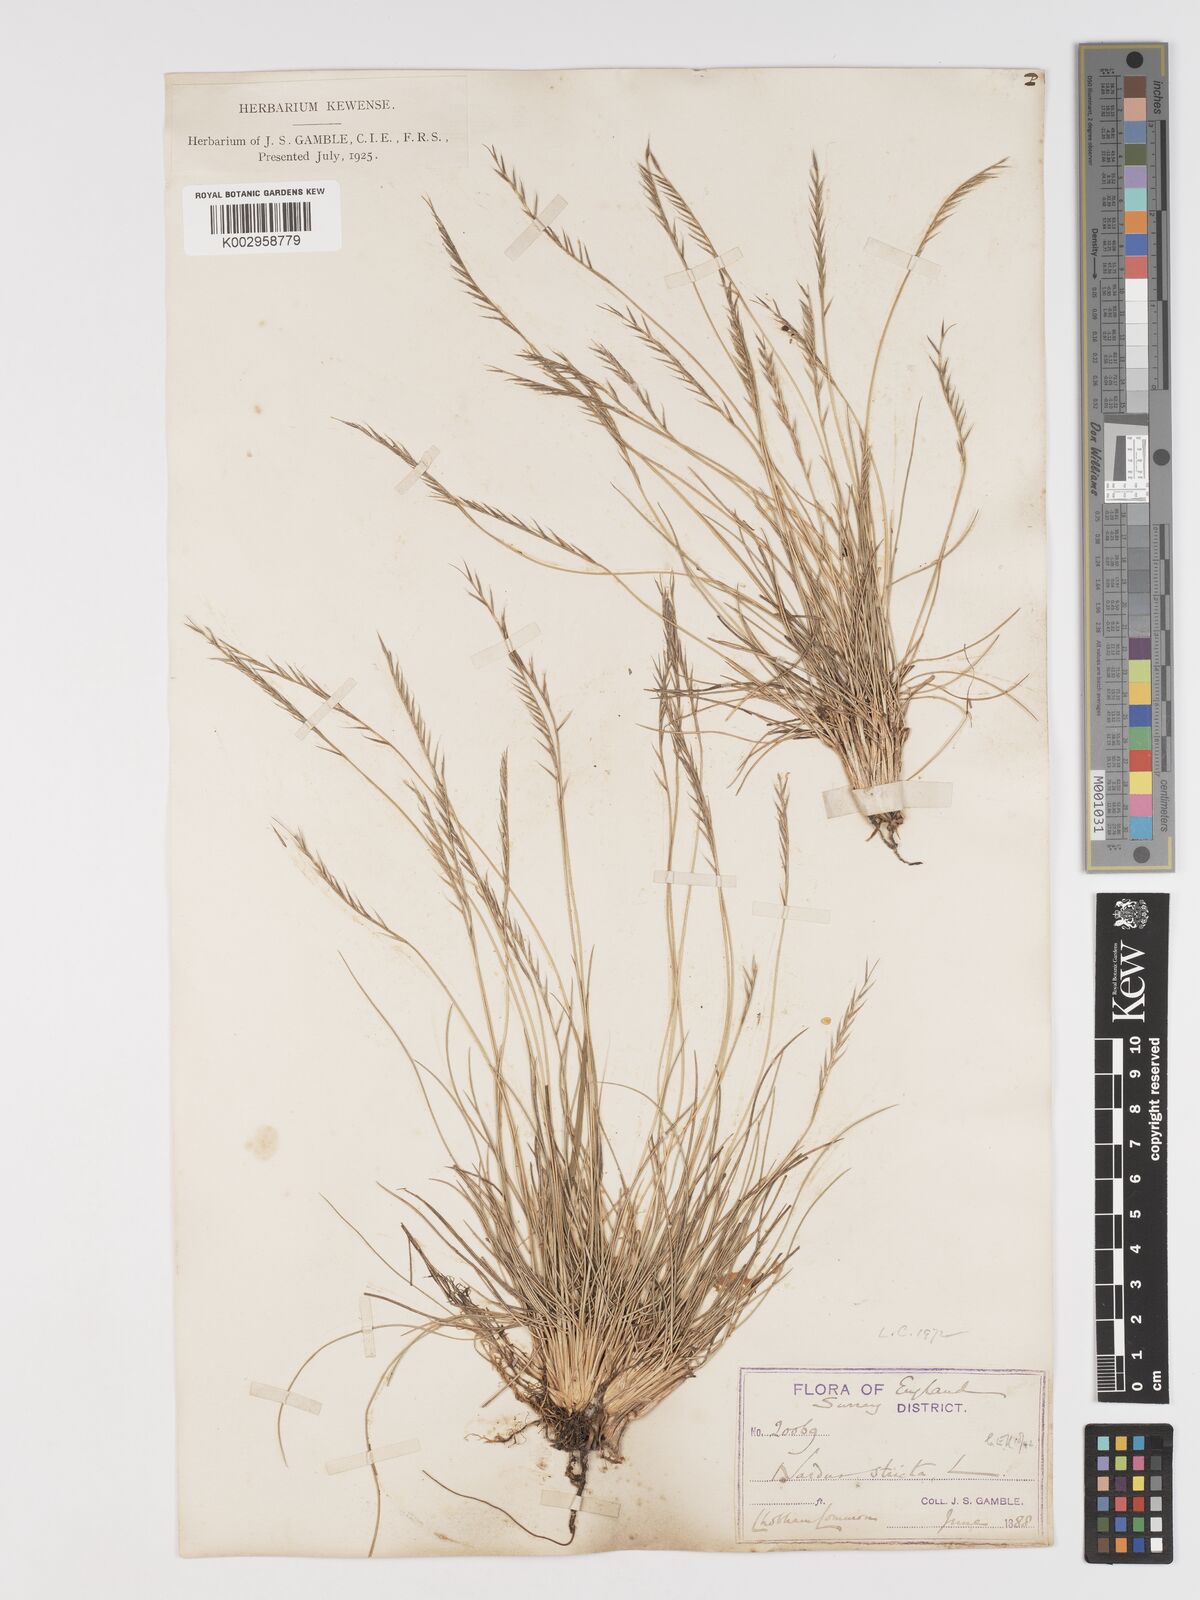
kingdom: Plantae
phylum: Tracheophyta
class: Liliopsida
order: Poales
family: Poaceae
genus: Nardus
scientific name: Nardus stricta
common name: Mat-grass
